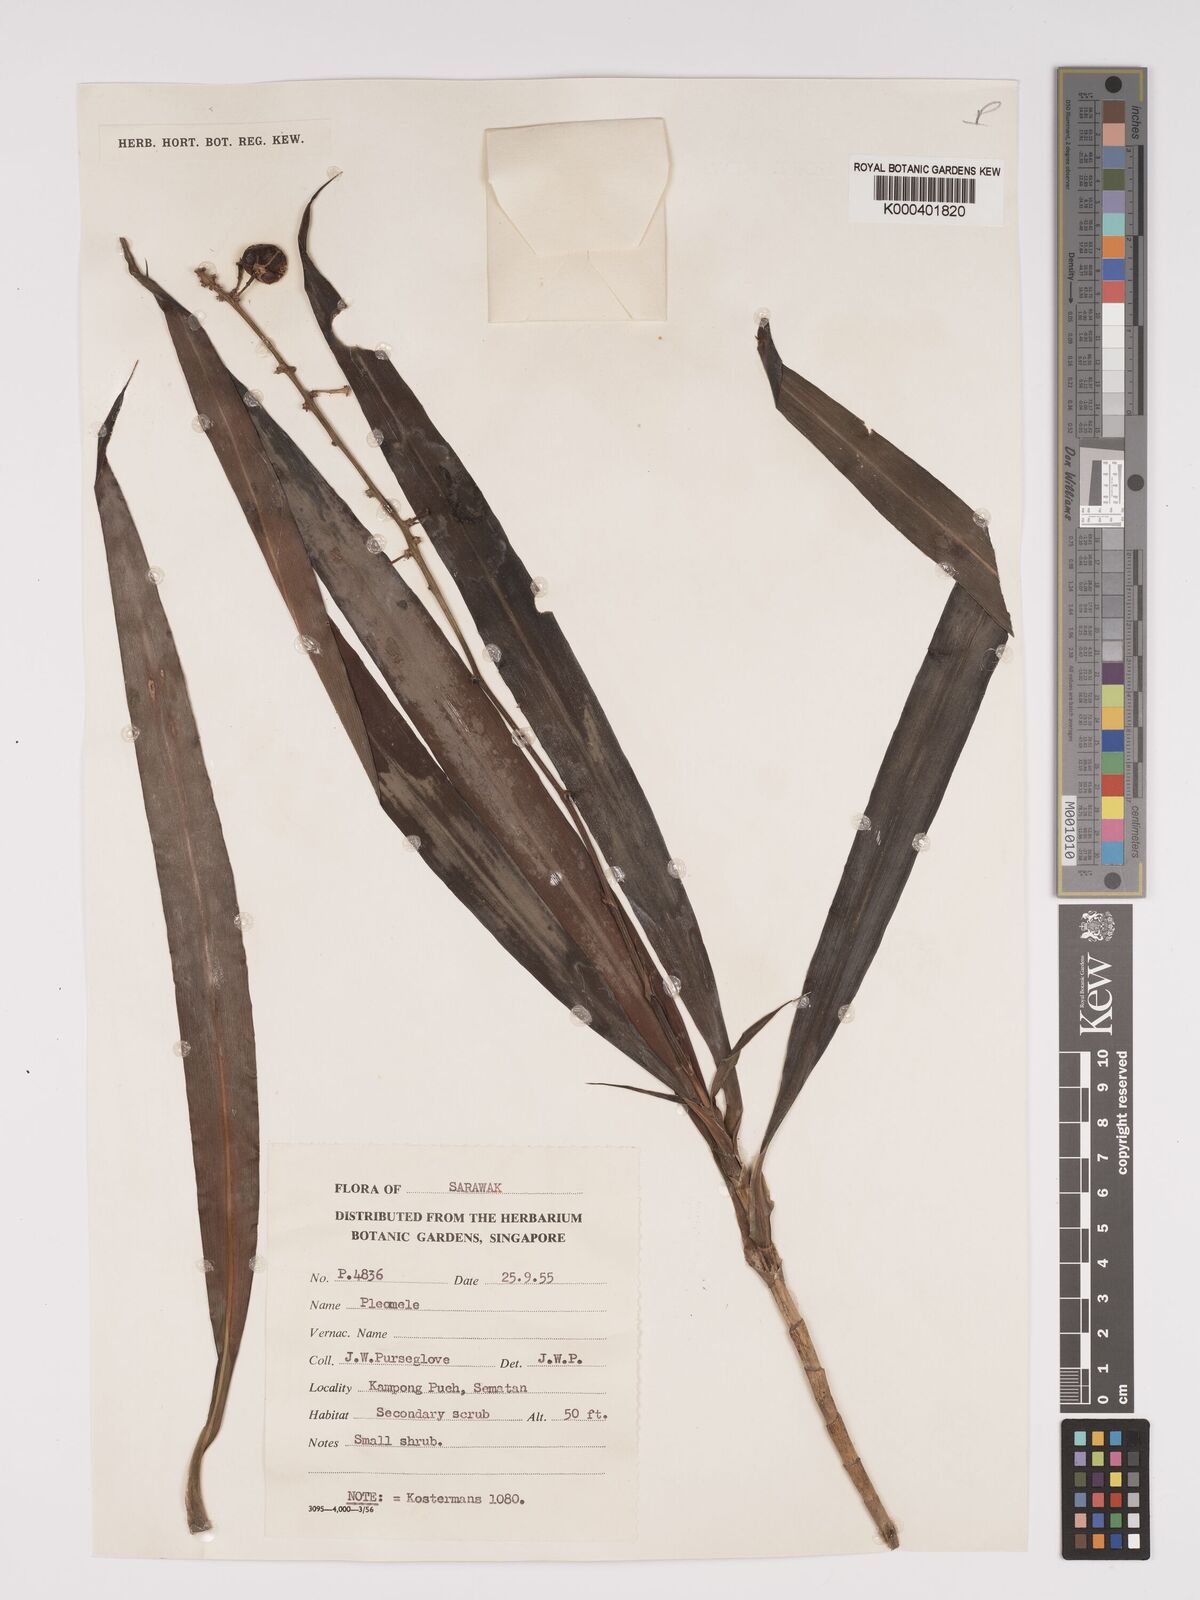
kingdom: Plantae
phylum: Tracheophyta
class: Liliopsida
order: Asparagales
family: Asparagaceae
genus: Dracaena
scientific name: Dracaena
